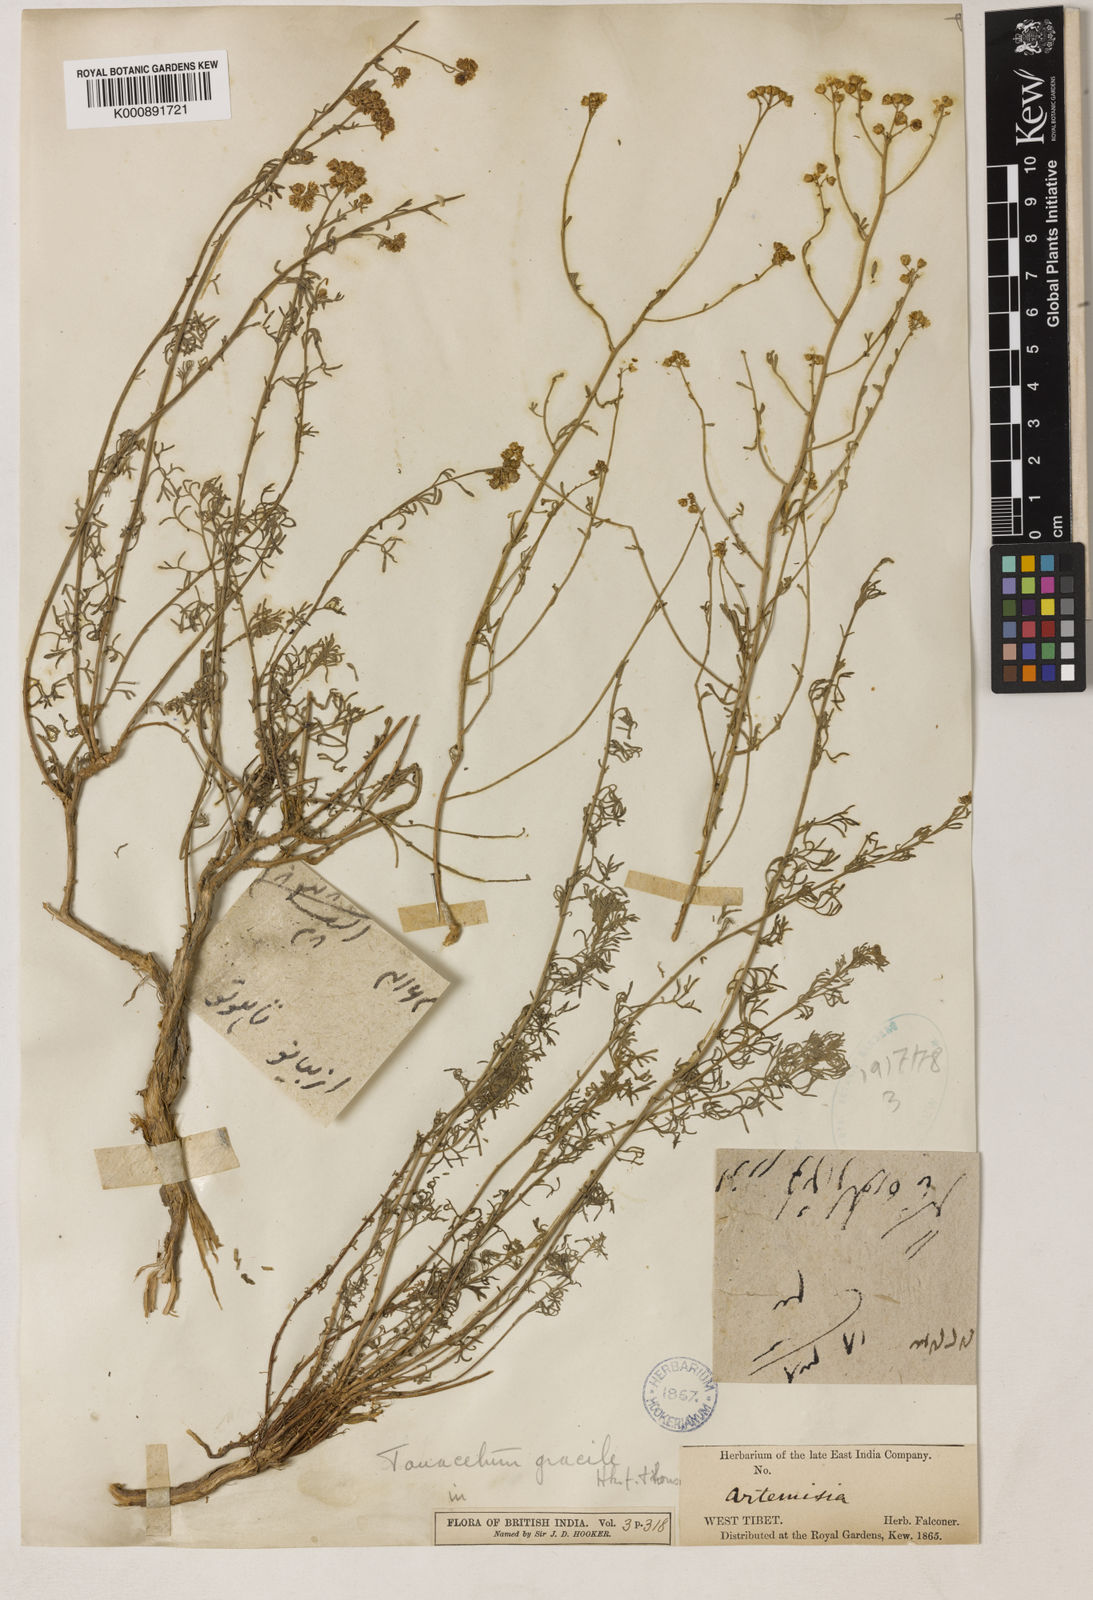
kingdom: Plantae
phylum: Tracheophyta
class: Magnoliopsida
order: Asterales
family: Asteraceae
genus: Ajania
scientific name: Ajania
